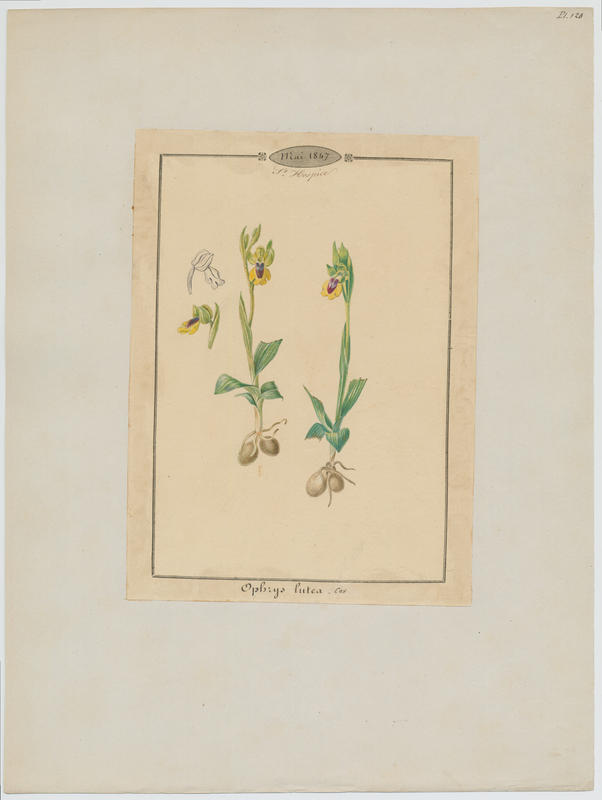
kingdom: Plantae
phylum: Tracheophyta
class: Liliopsida
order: Asparagales
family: Orchidaceae
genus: Ophrys
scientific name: Ophrys lutea
